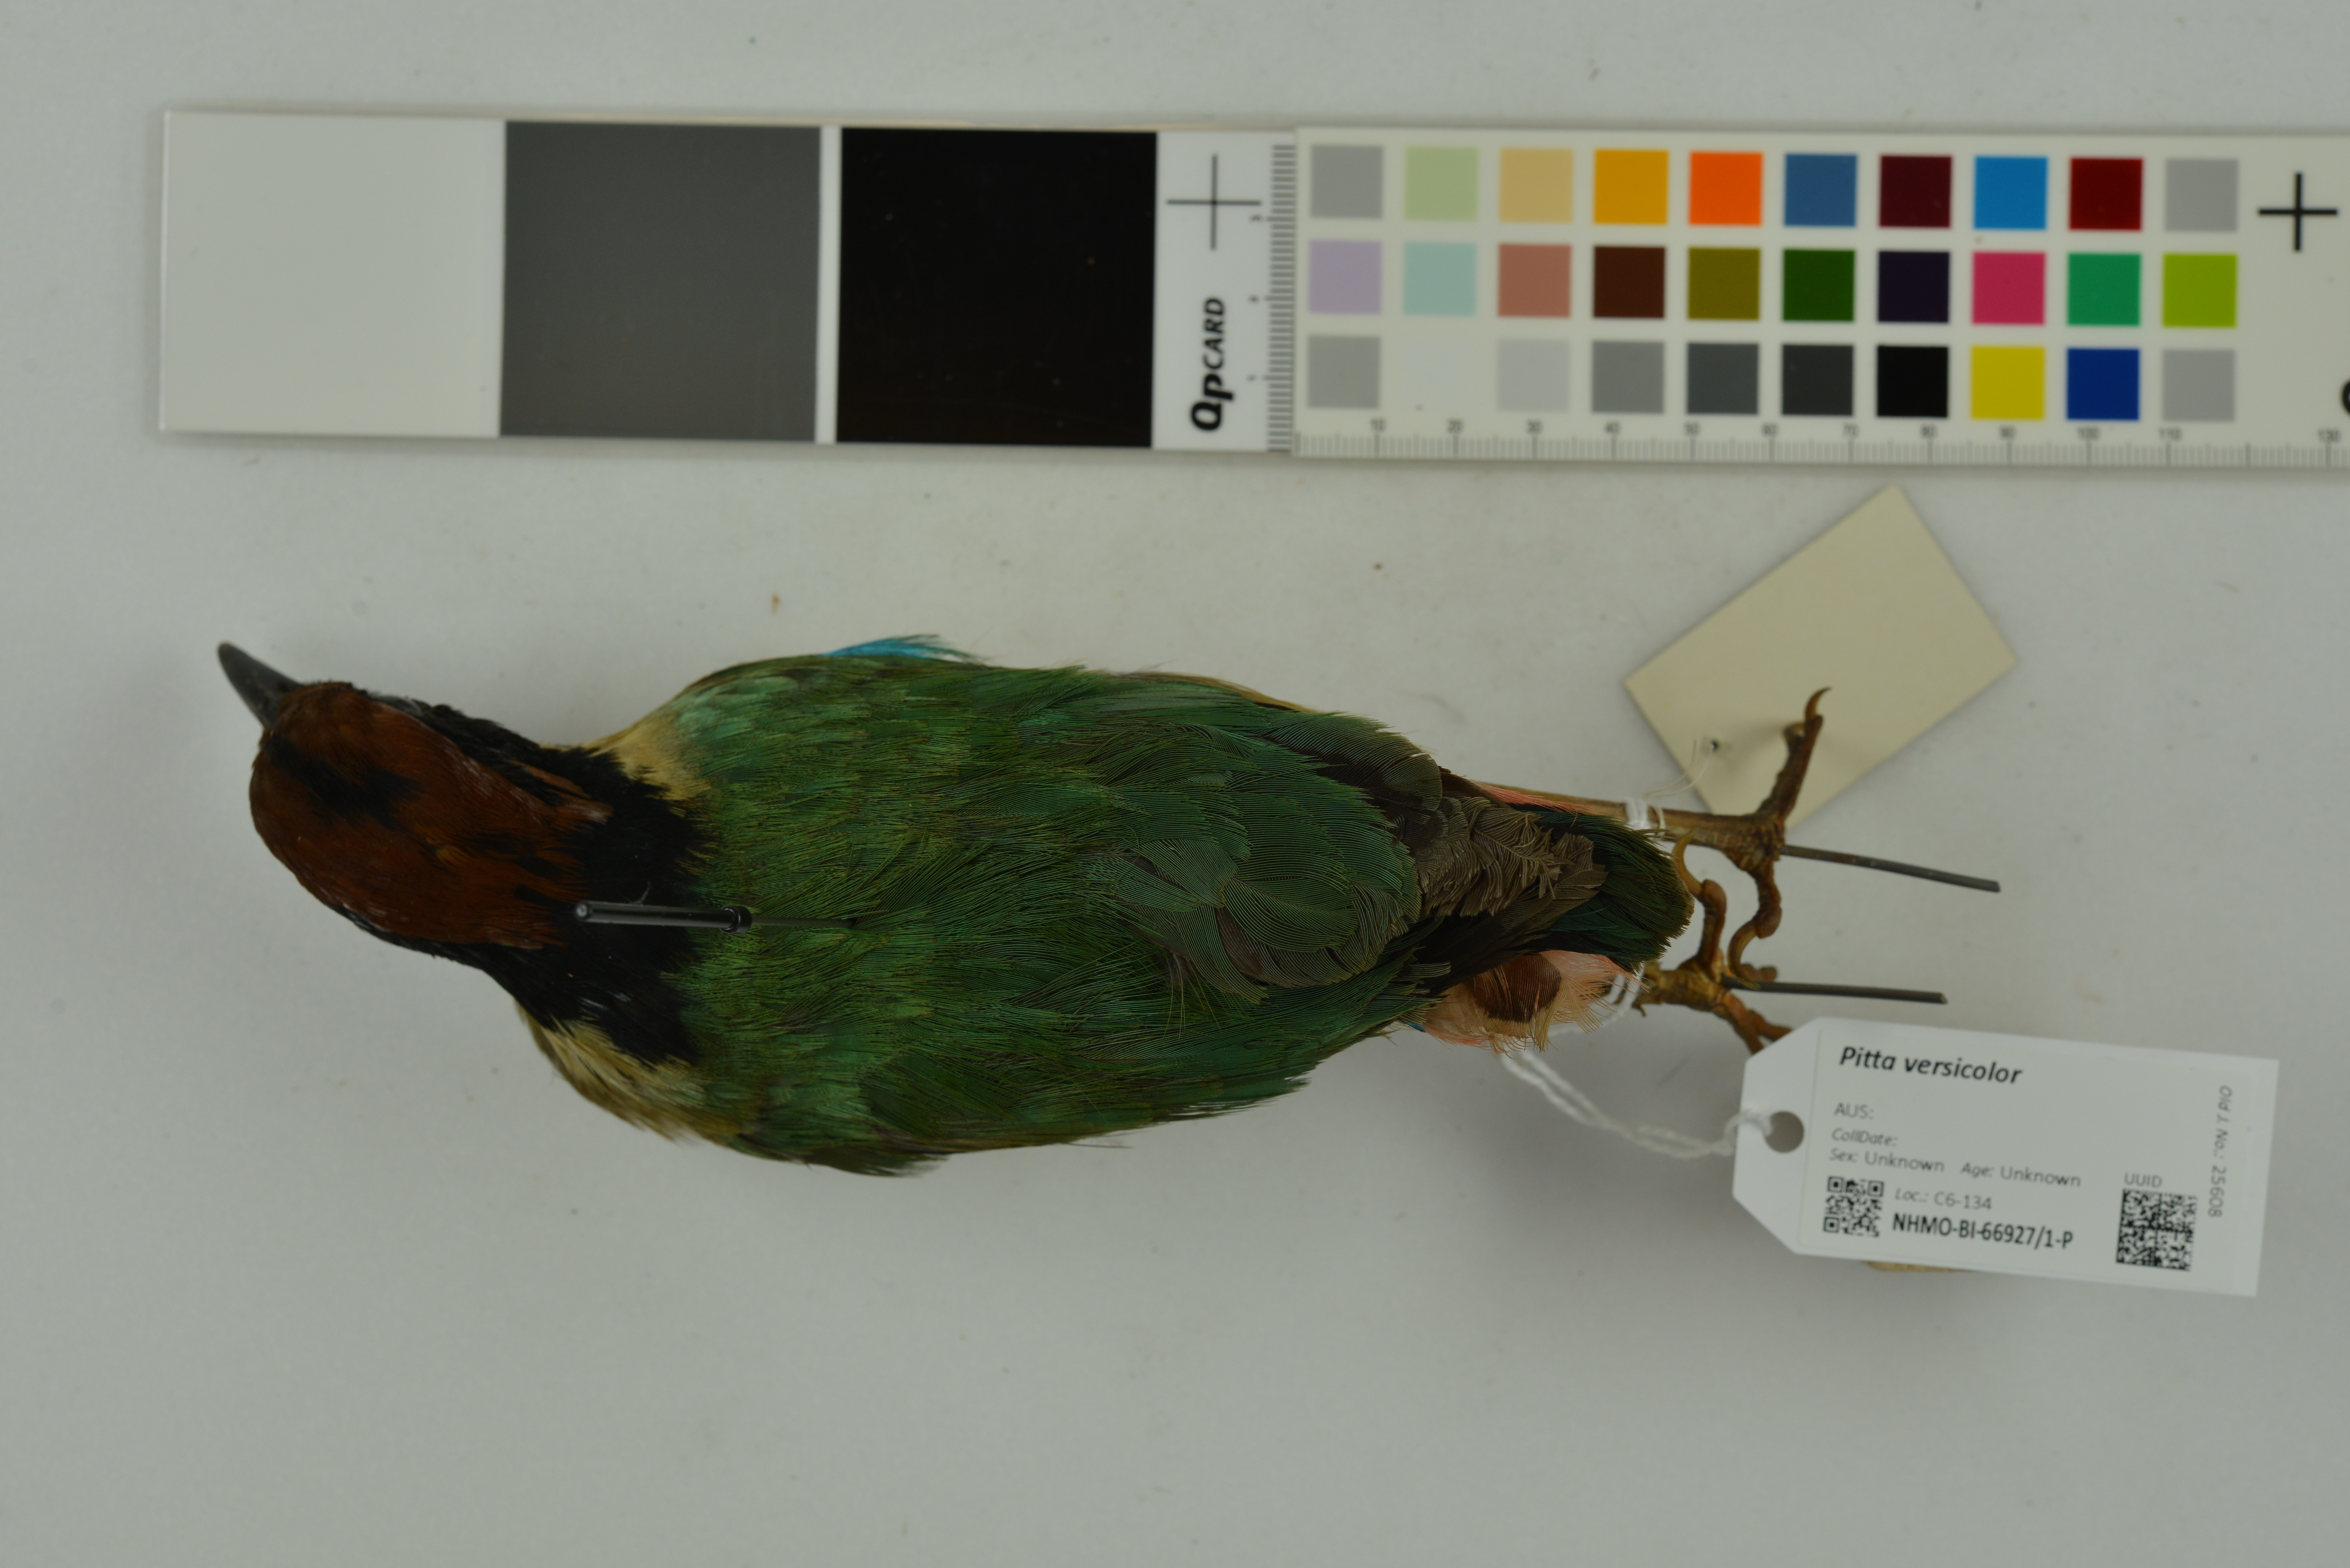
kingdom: Animalia
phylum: Chordata
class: Aves
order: Passeriformes
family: Pittidae
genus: Pitta
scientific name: Pitta versicolor
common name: Noisy pitta
